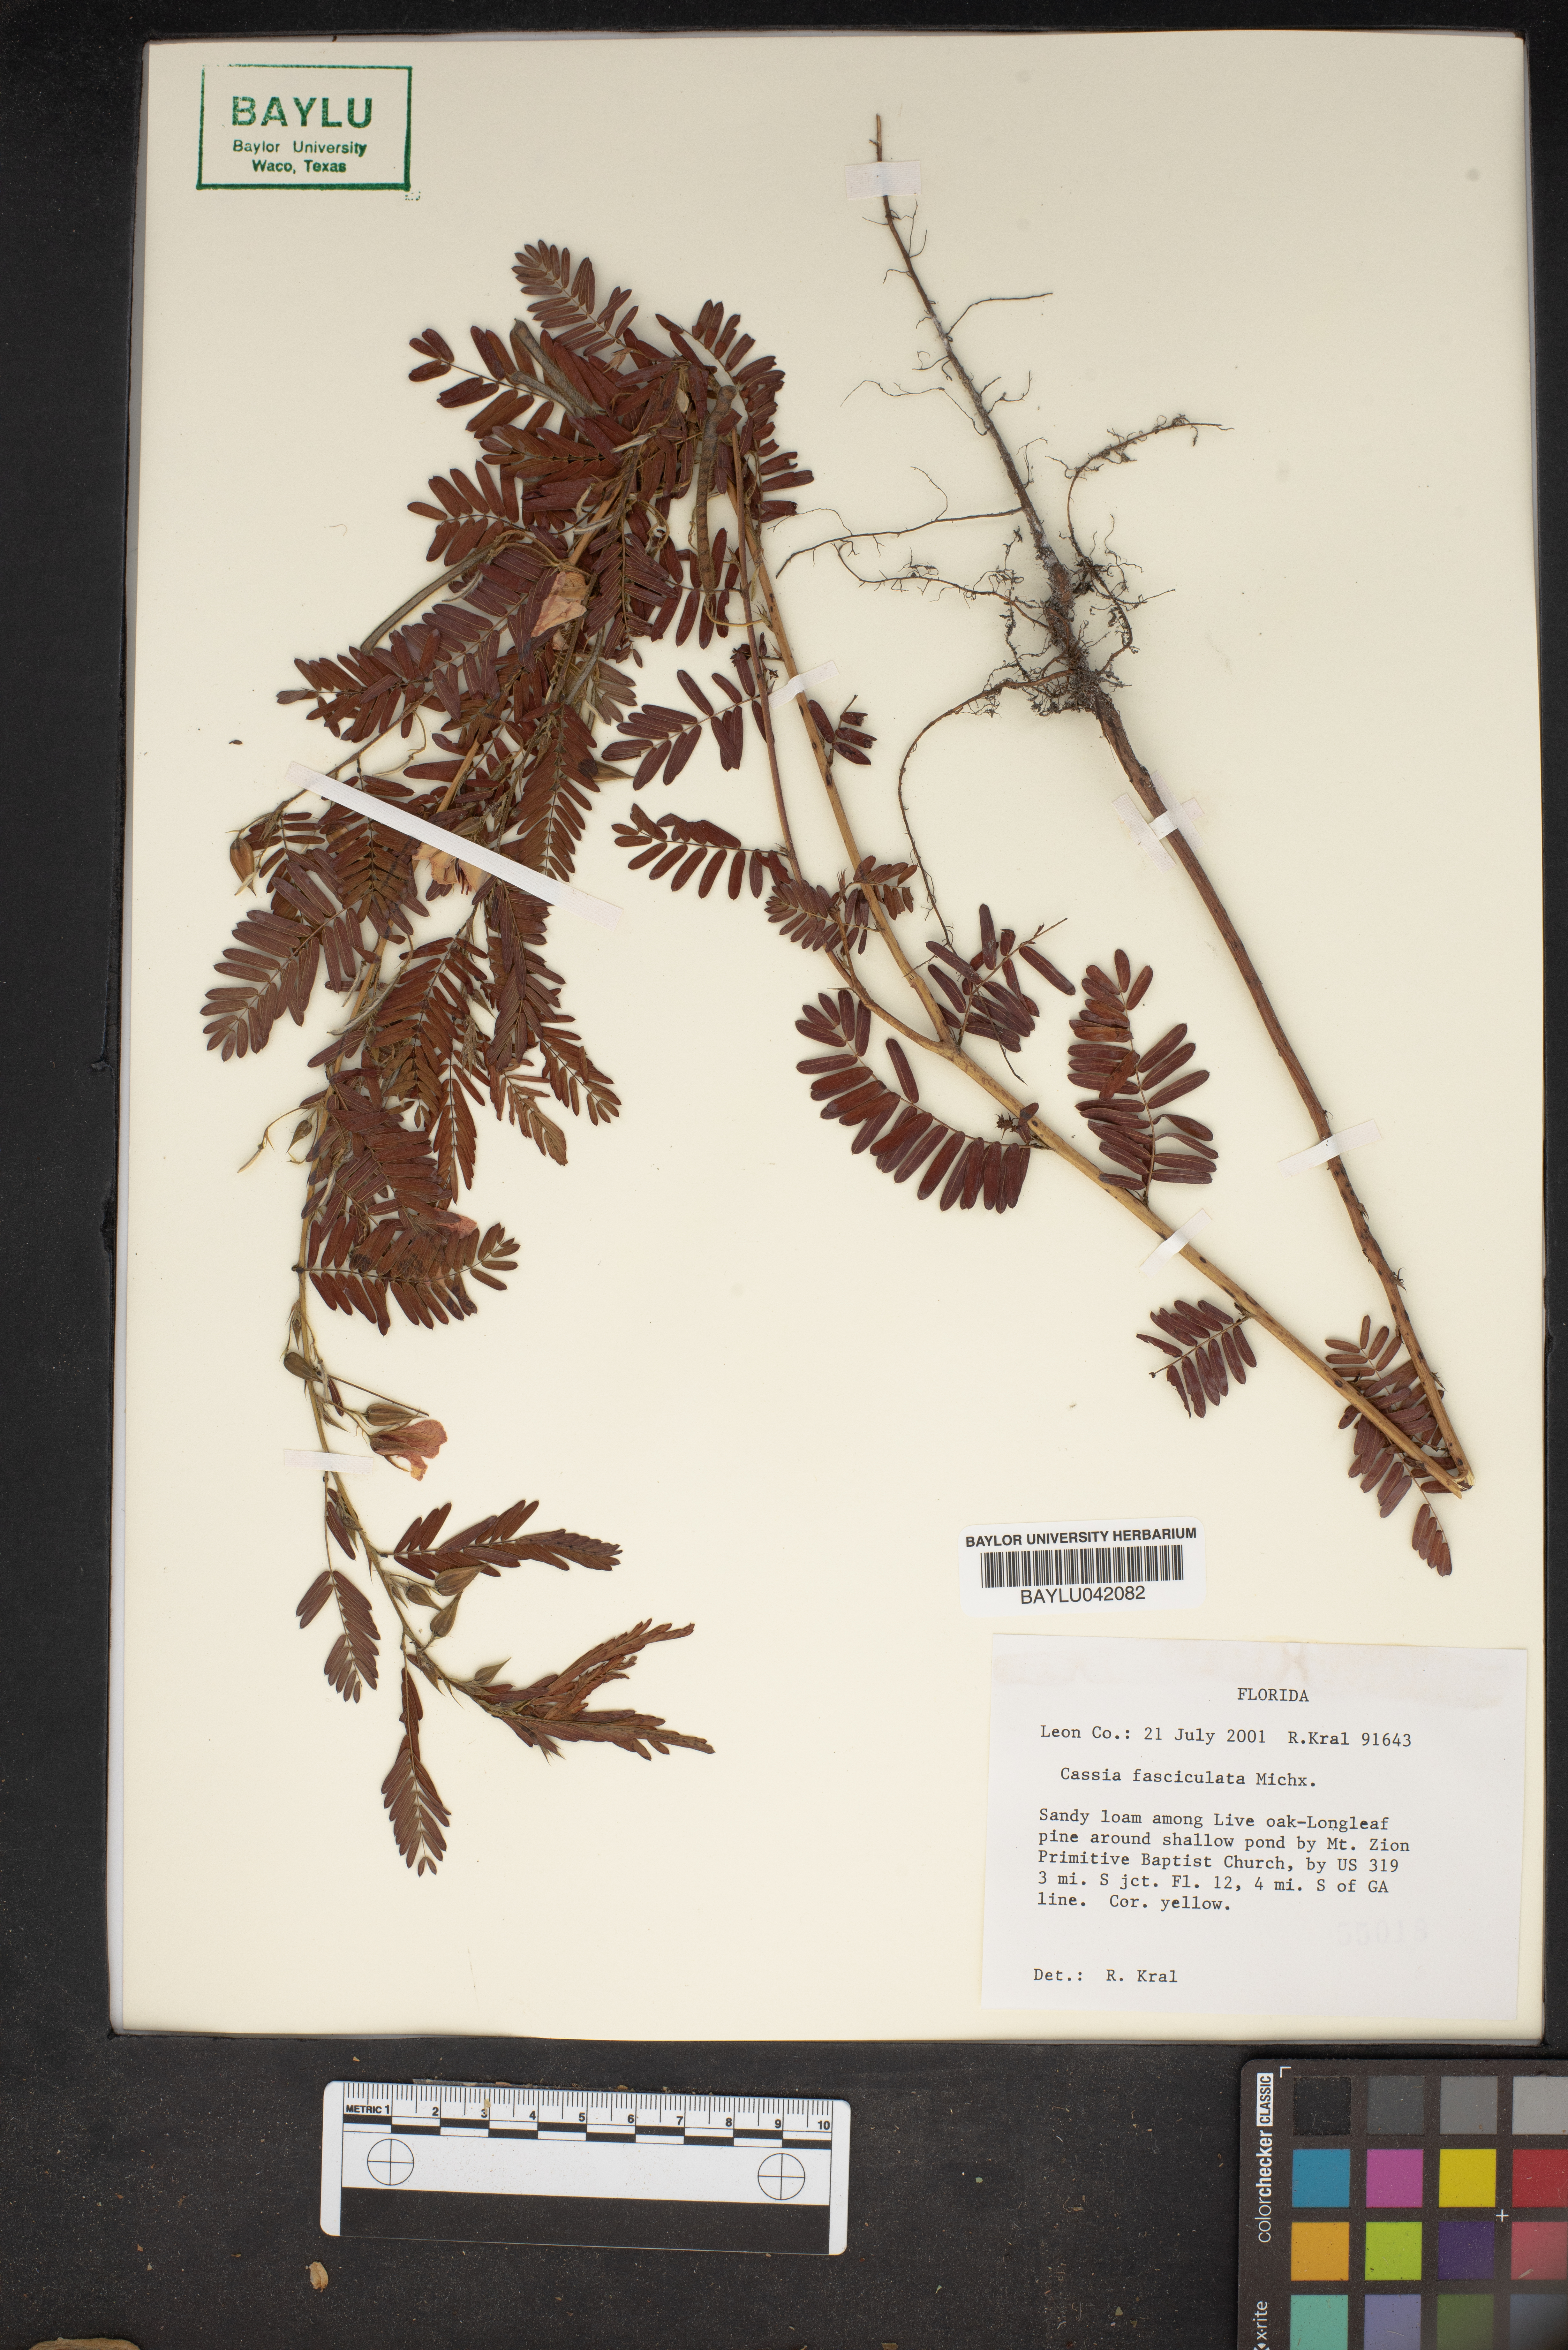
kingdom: Plantae
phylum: Tracheophyta
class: Magnoliopsida
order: Fabales
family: Fabaceae
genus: Chamaecrista
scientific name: Chamaecrista fasciculata
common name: Golden cassia
